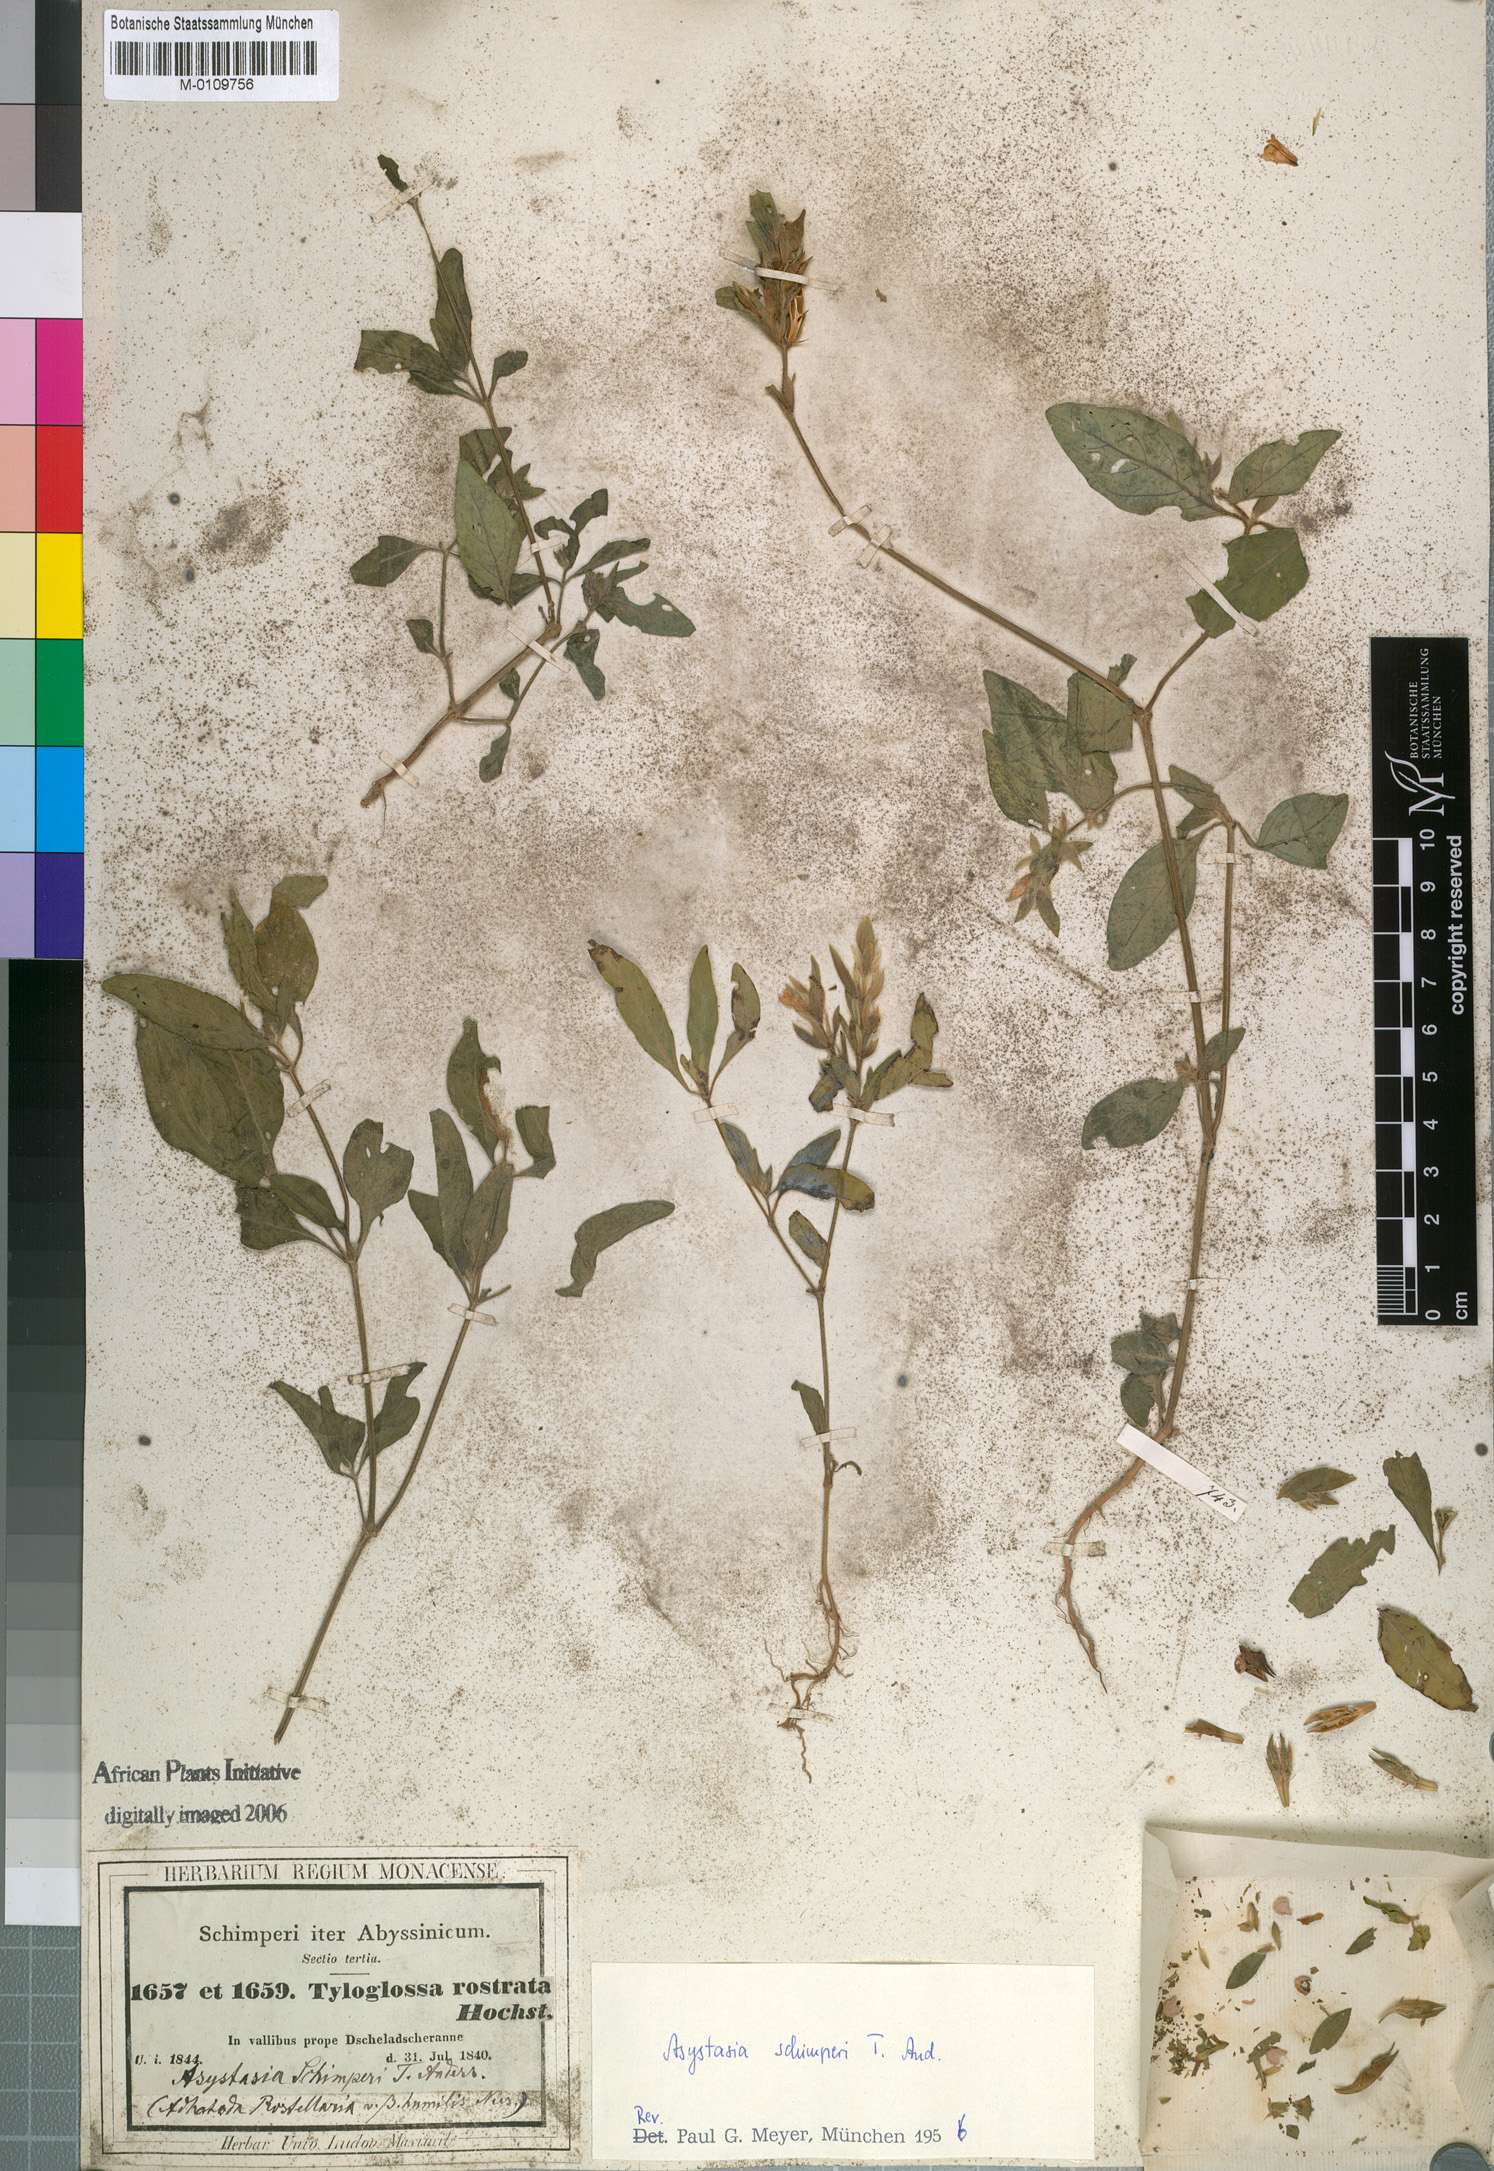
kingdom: Plantae
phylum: Tracheophyta
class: Magnoliopsida
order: Lamiales
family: Acanthaceae
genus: Justicia
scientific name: Justicia ladanoides
